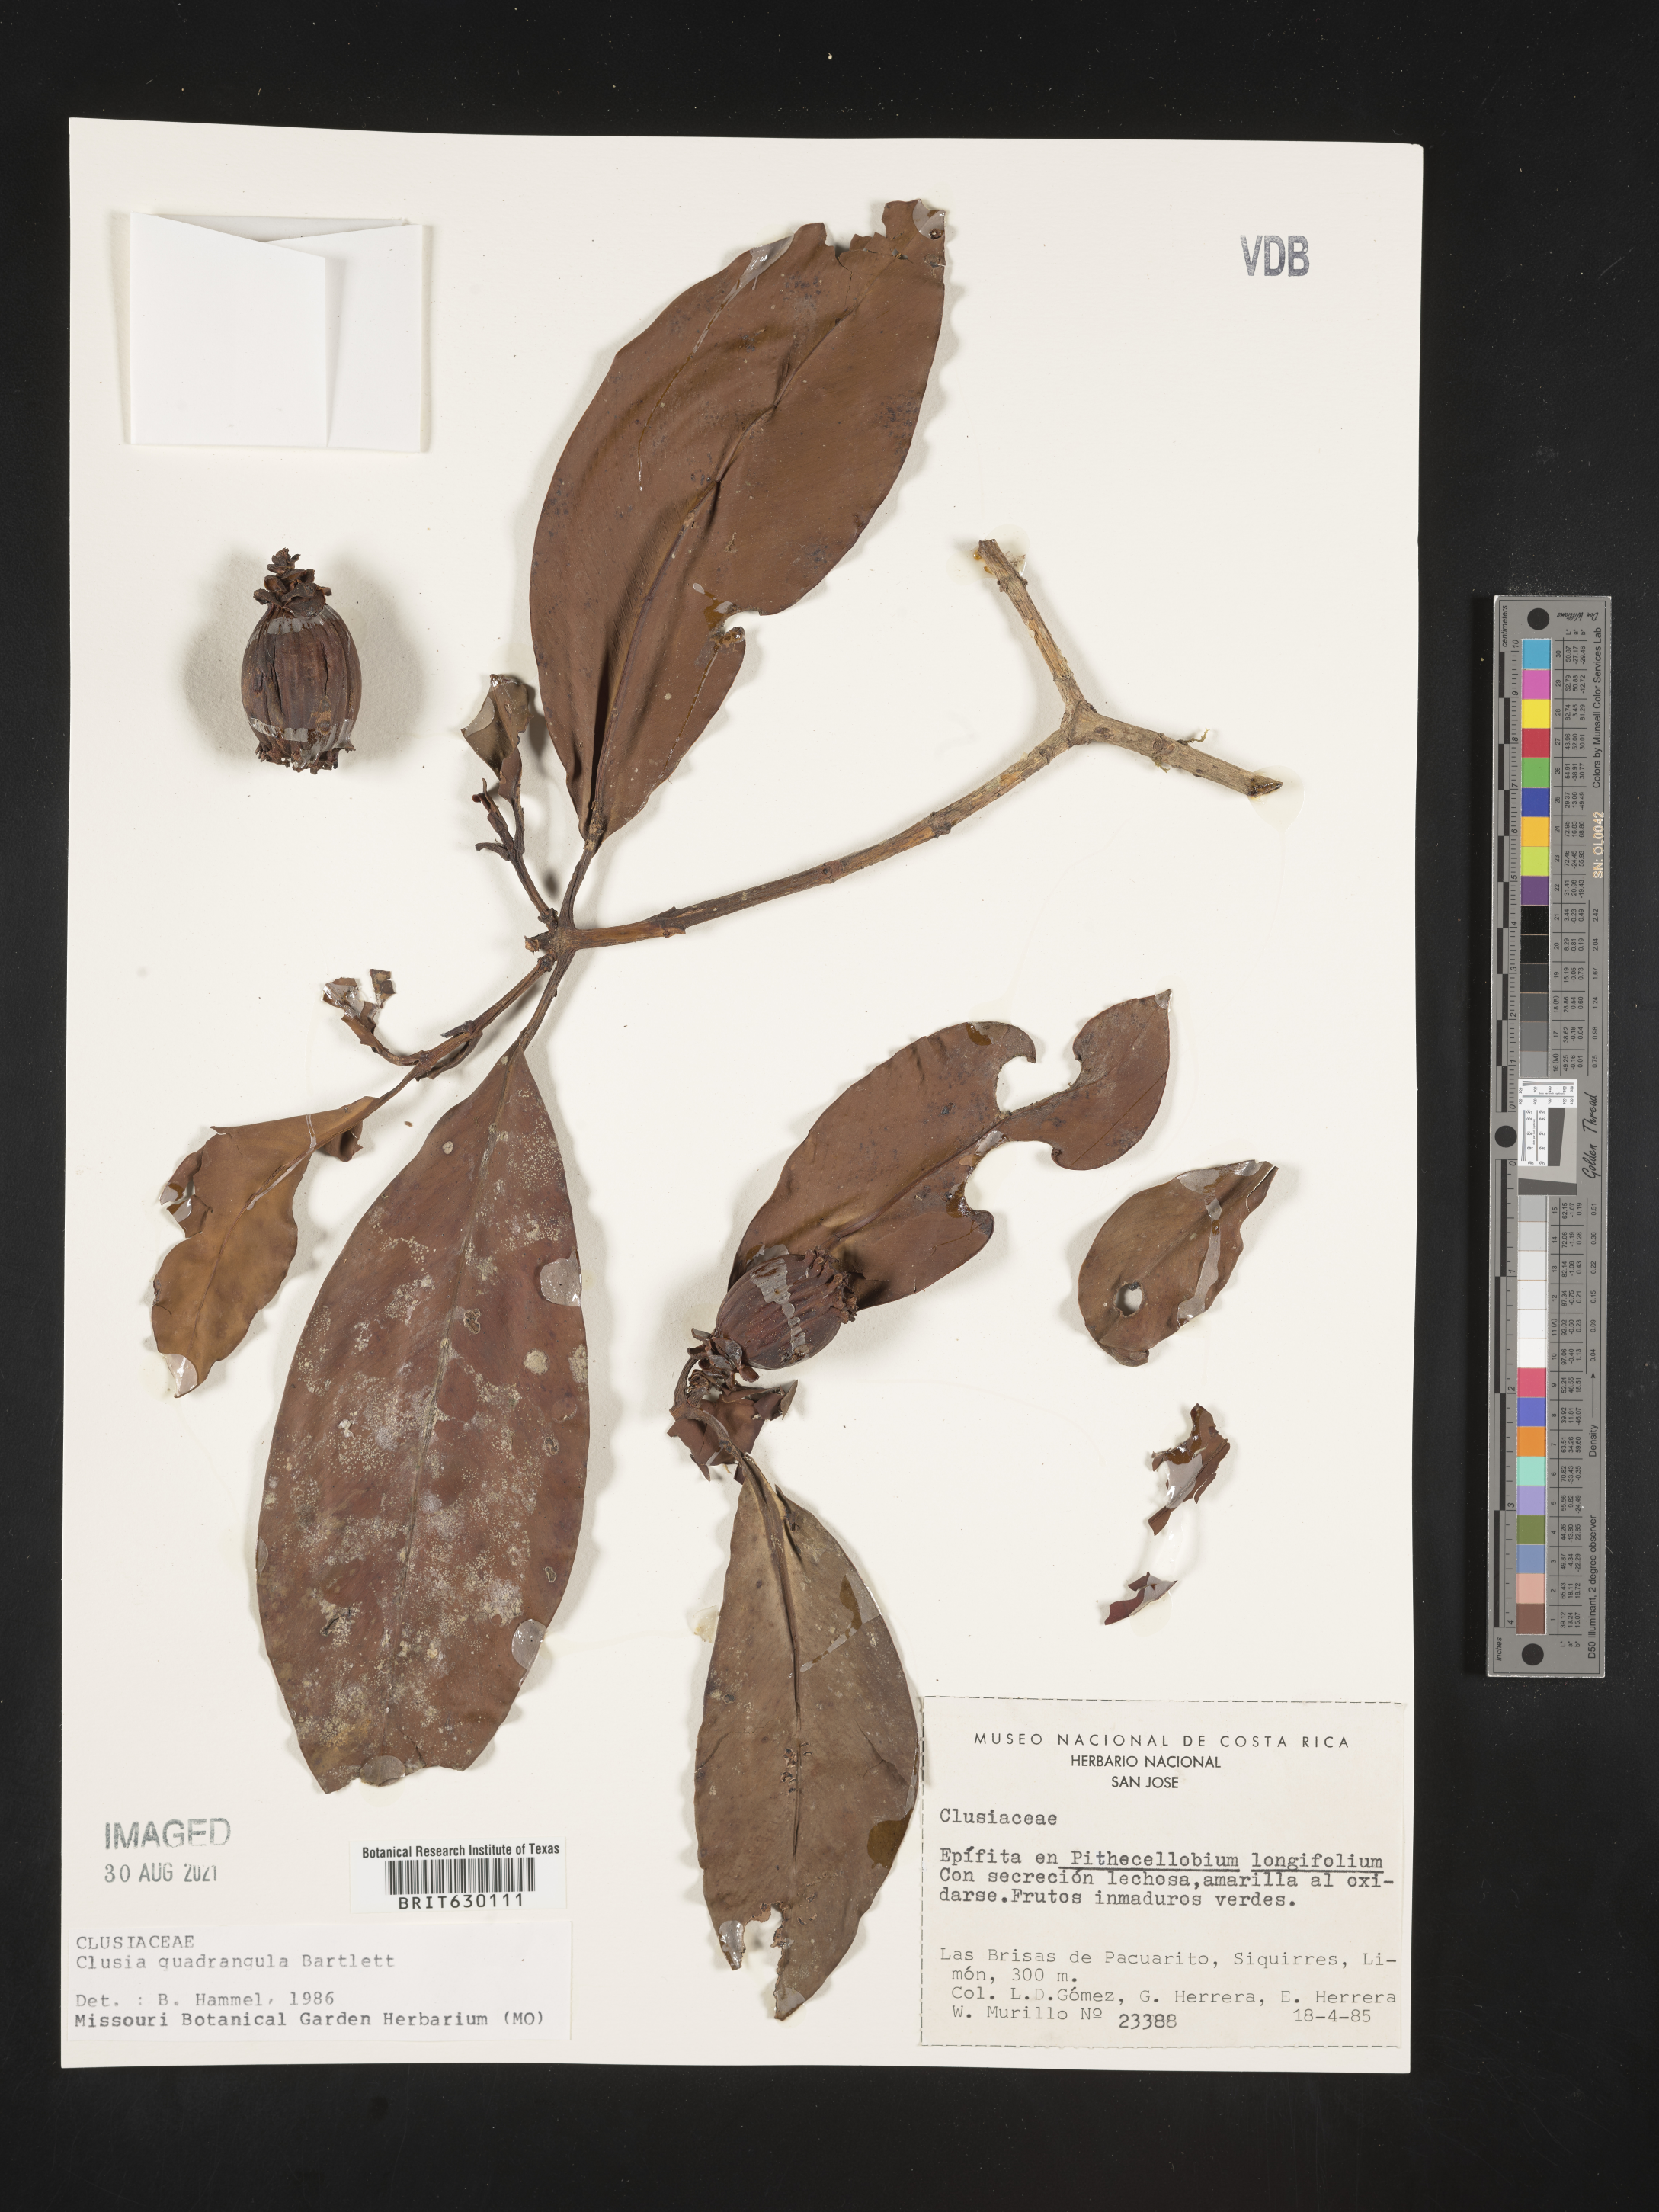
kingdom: Plantae
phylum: Tracheophyta
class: Magnoliopsida
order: Malpighiales
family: Clusiaceae
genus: Clusia
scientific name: Clusia quadrangula
